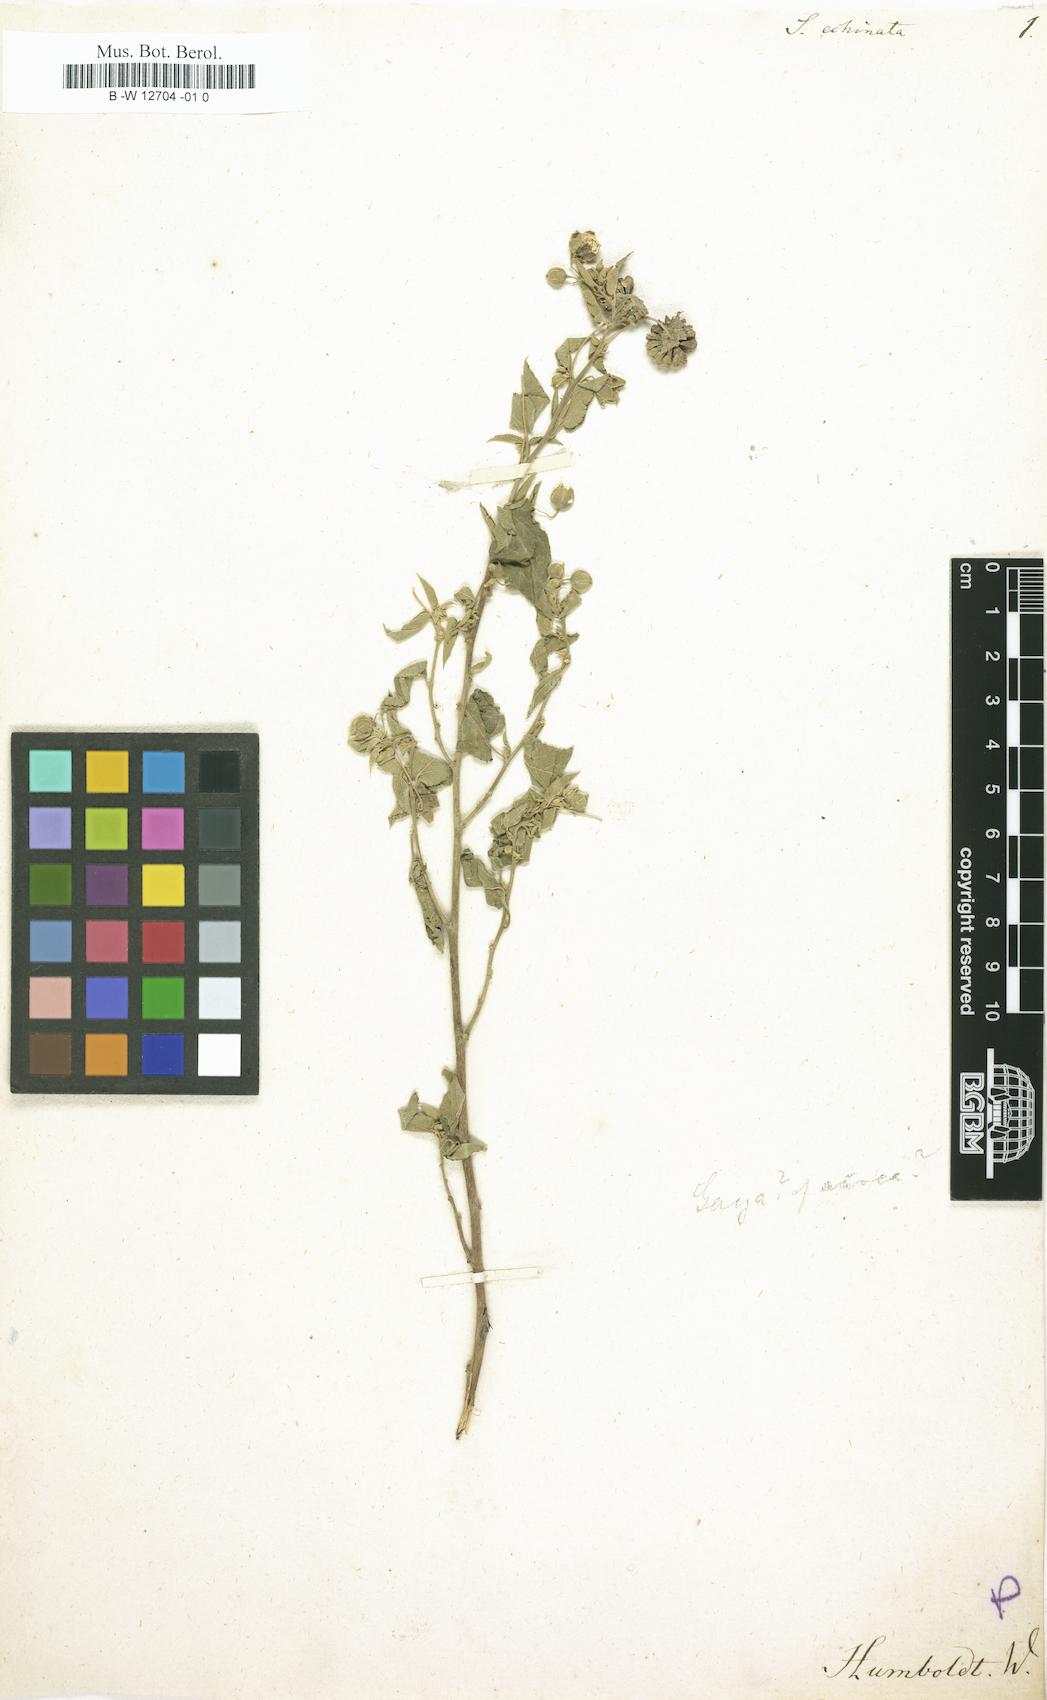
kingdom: Plantae
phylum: Tracheophyta
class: Magnoliopsida
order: Malvales
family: Malvaceae
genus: Sida
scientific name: Sida echinata
